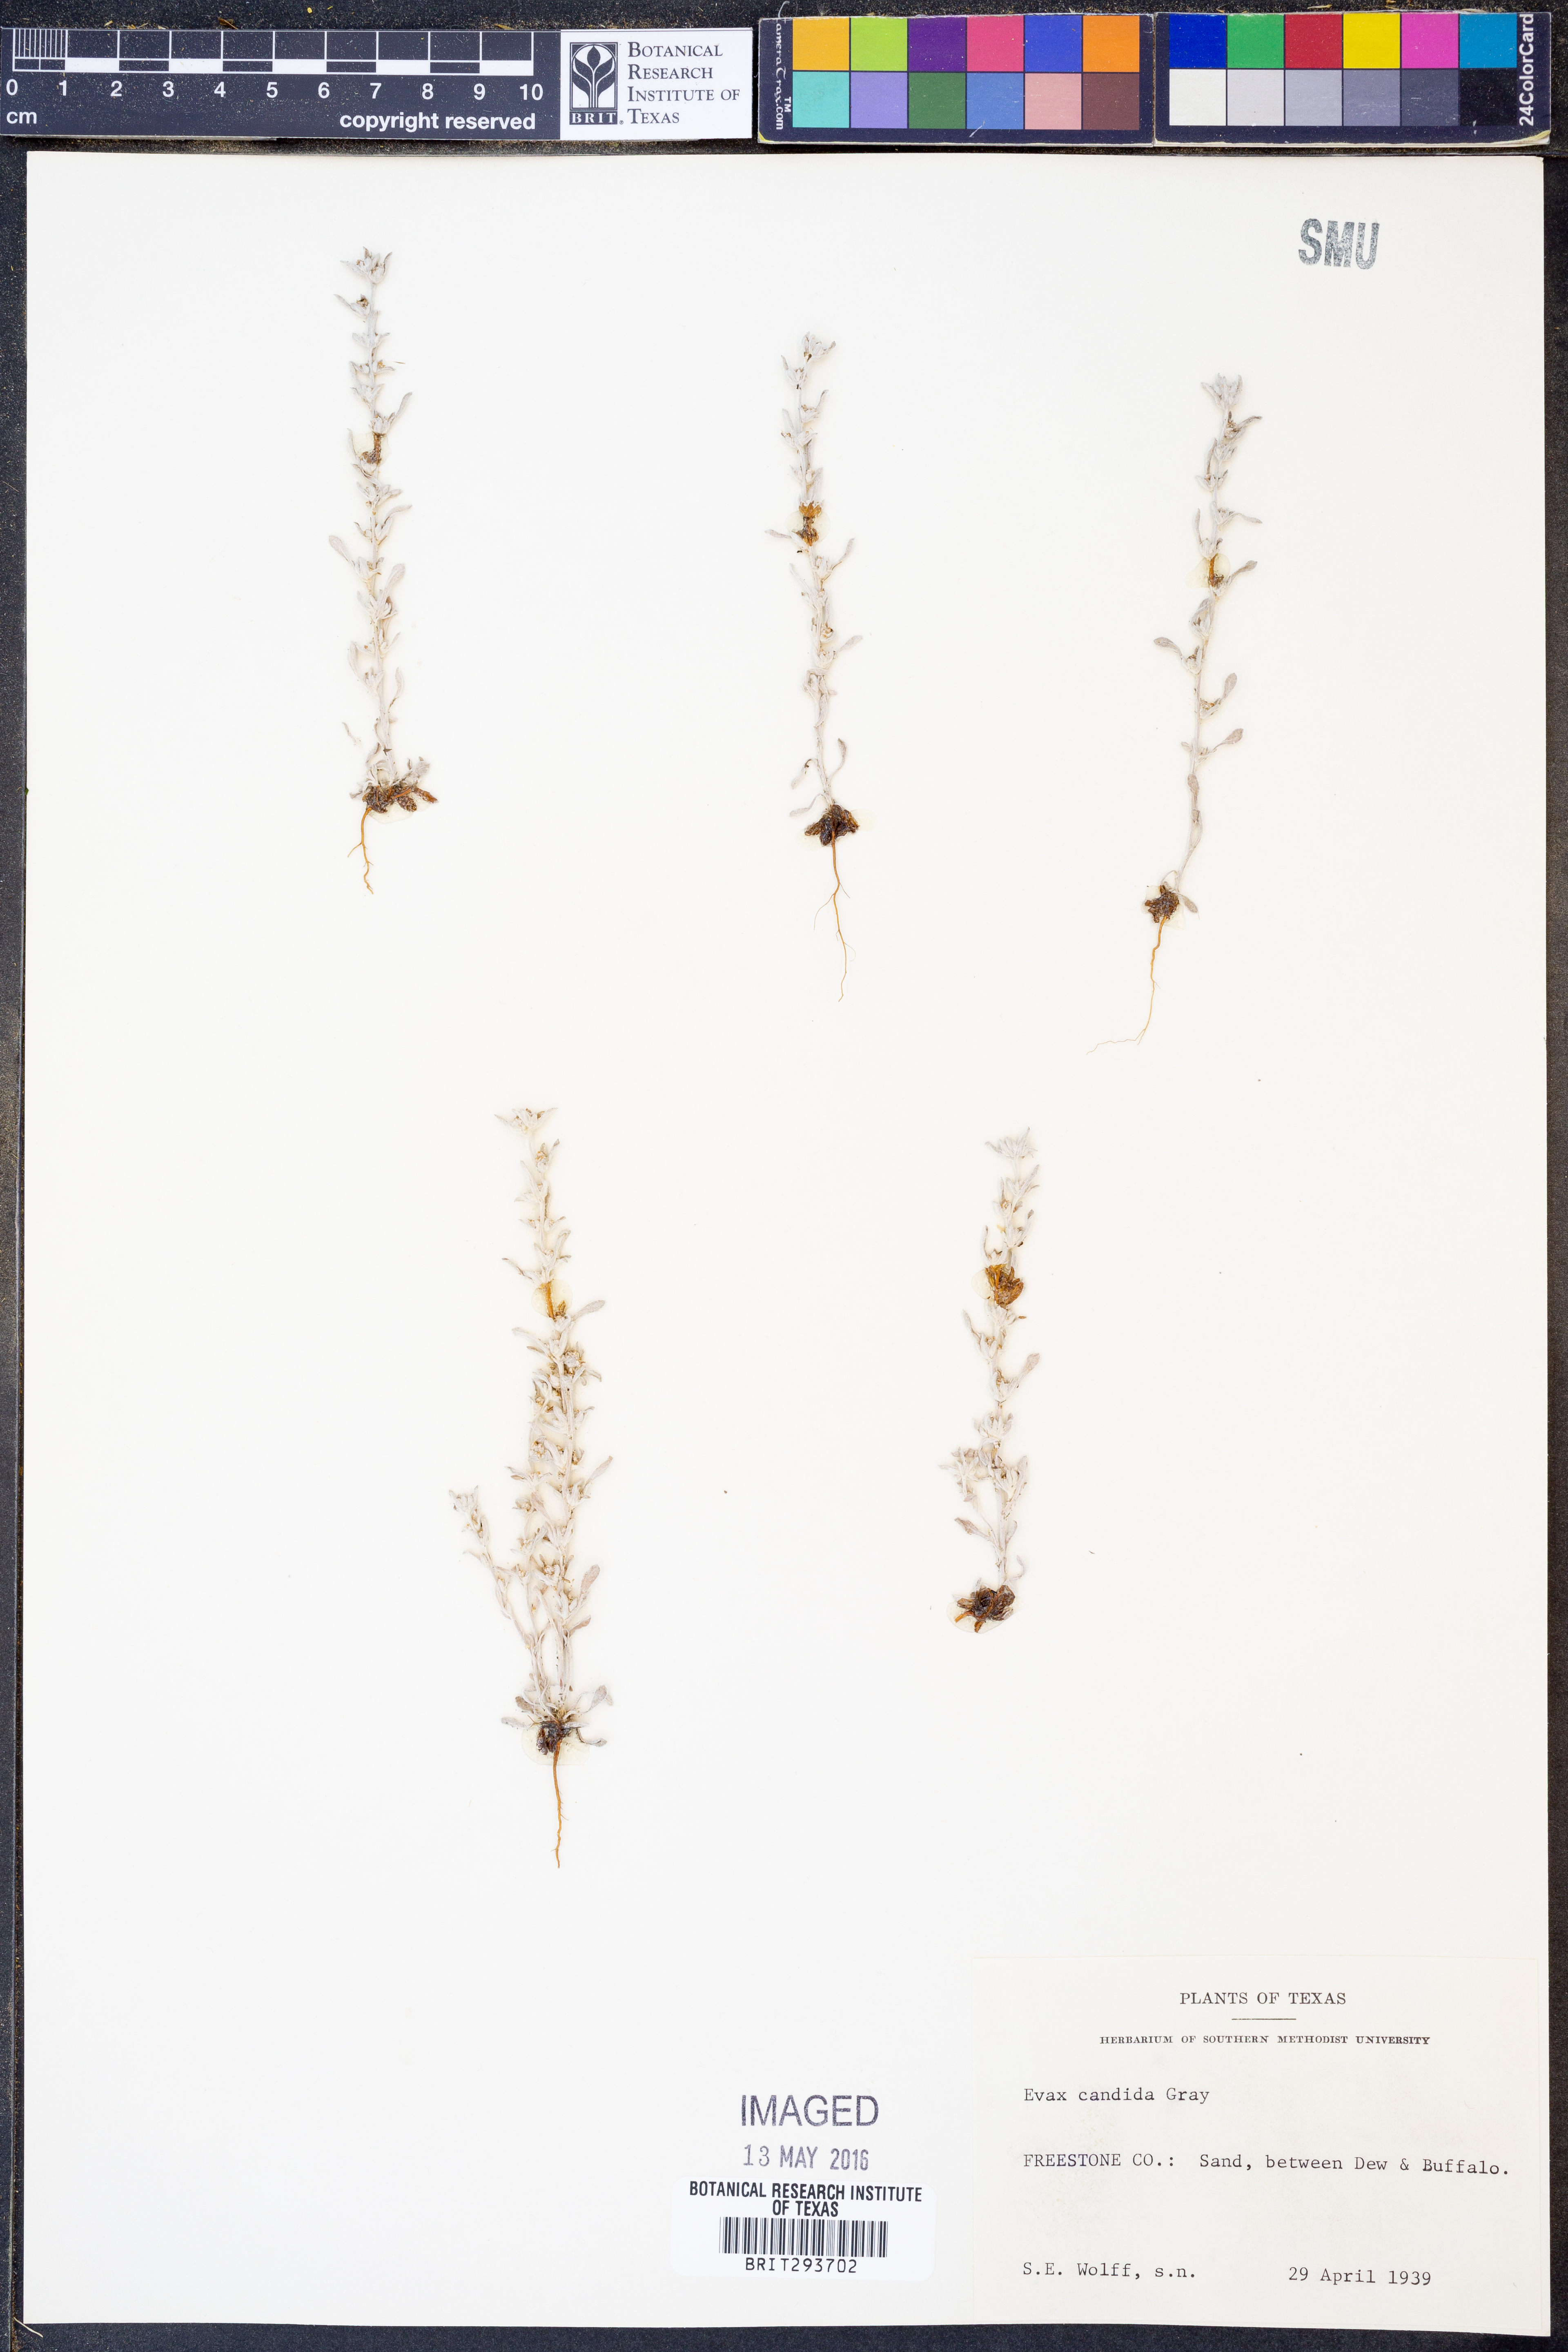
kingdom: Plantae
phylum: Tracheophyta
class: Magnoliopsida
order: Asterales
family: Asteraceae
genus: Diaperia
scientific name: Diaperia candida
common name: Silver rabbit-tobacco
